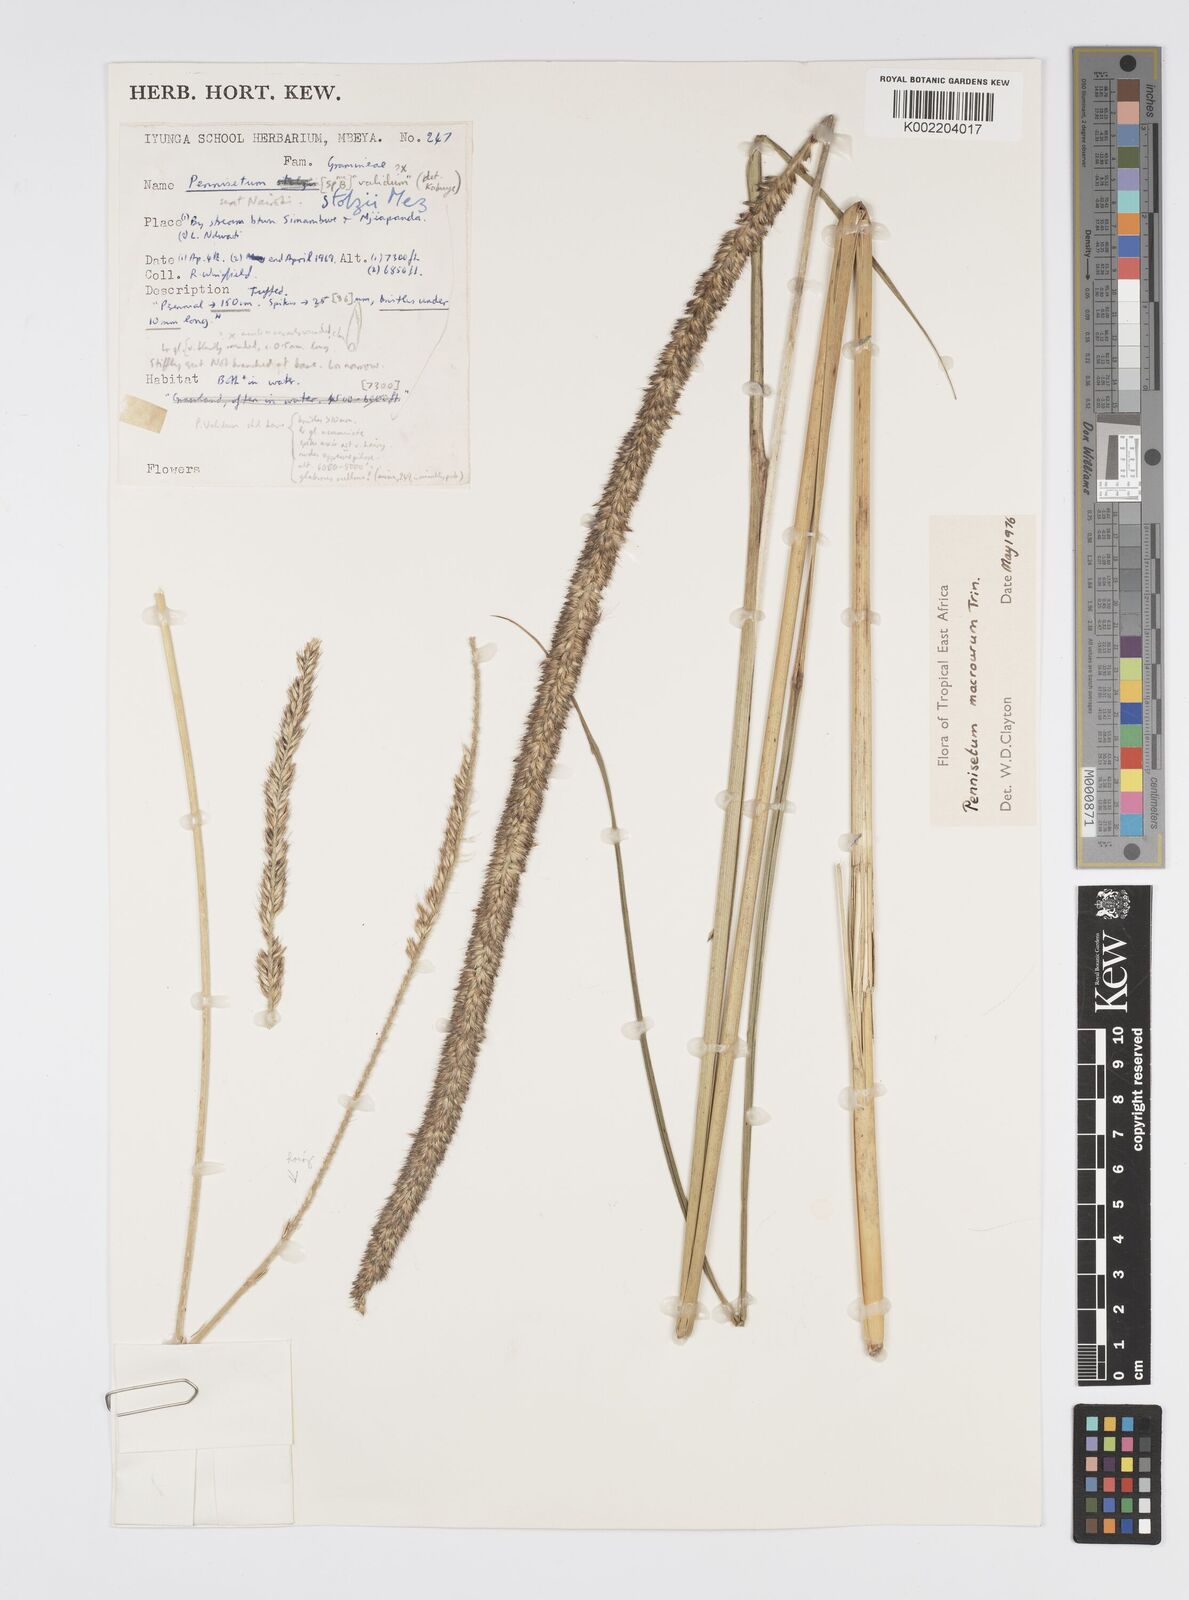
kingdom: Plantae
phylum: Tracheophyta
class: Liliopsida
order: Poales
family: Poaceae
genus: Cenchrus
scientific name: Cenchrus caudatus
